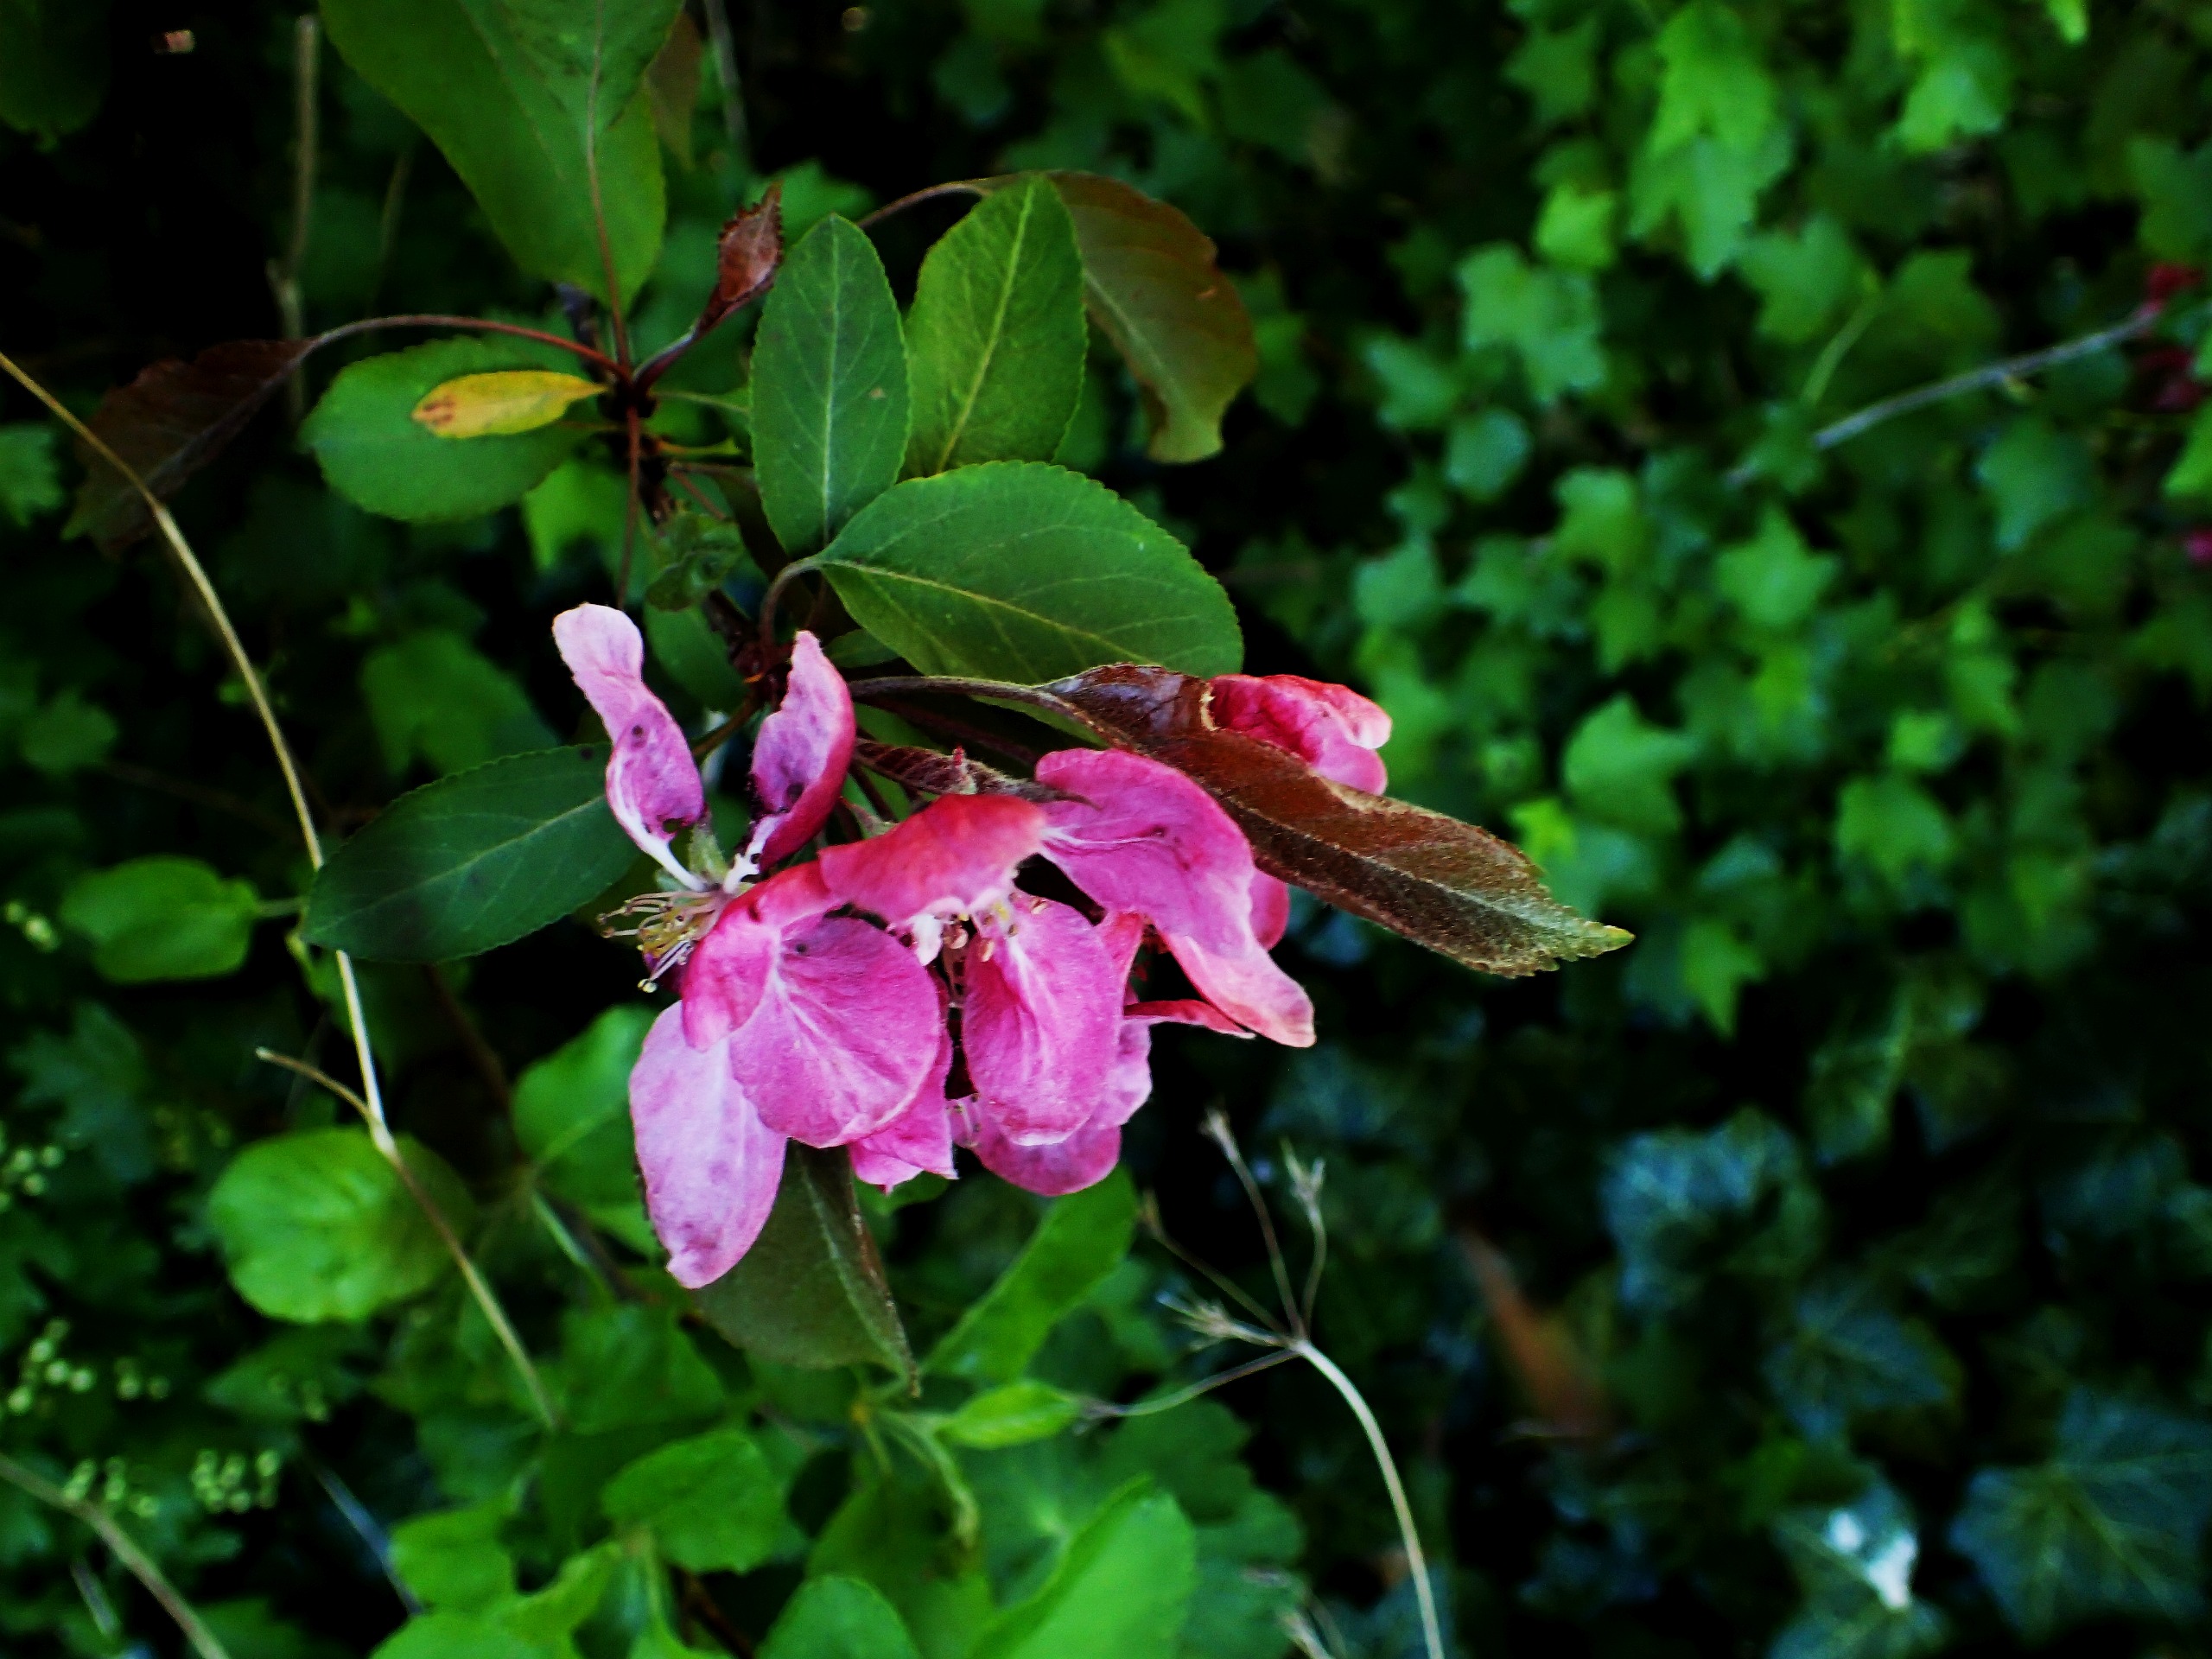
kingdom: Plantae
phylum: Tracheophyta
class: Magnoliopsida
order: Rosales
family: Rosaceae
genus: Malus
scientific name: Malus
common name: Æbleslægten
